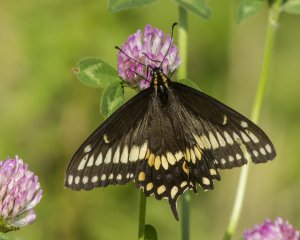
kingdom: Animalia
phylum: Arthropoda
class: Insecta
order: Lepidoptera
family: Papilionidae
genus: Papilio
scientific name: Papilio brevicauda
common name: Short-tailed Swallowtail
